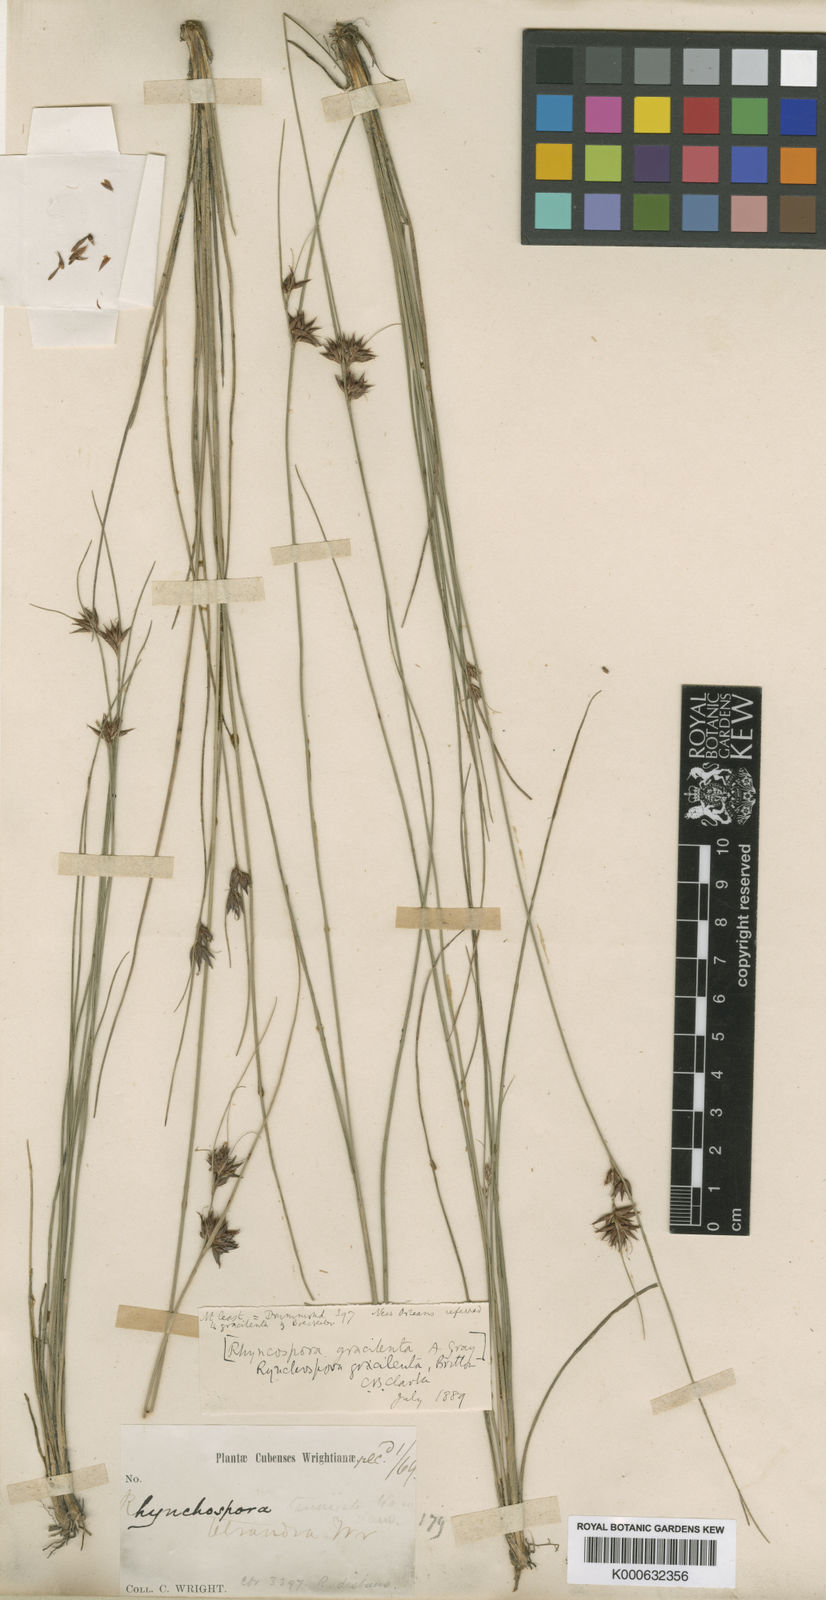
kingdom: Plantae
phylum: Tracheophyta
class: Liliopsida
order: Poales
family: Cyperaceae
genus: Rhynchospora
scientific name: Rhynchospora gracilenta
